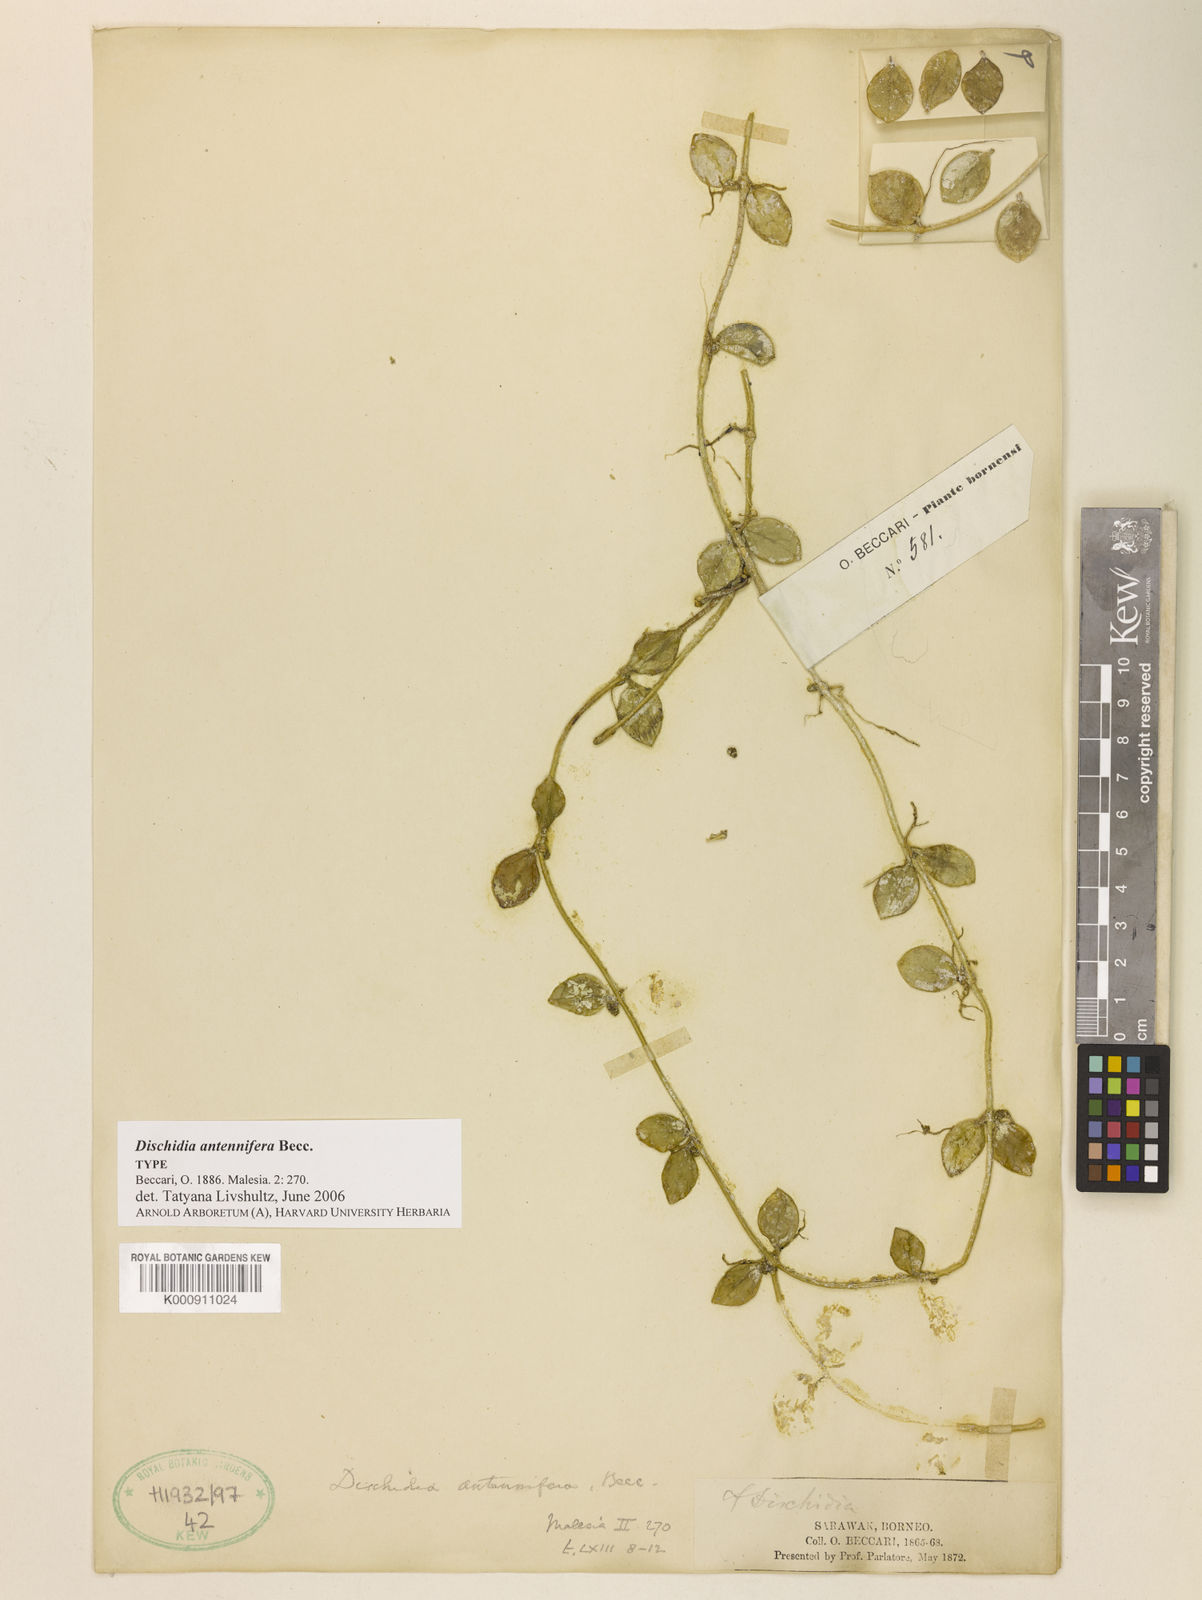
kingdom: Plantae
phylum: Tracheophyta
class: Magnoliopsida
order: Gentianales
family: Apocynaceae
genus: Dischidia
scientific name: Dischidia antennifera
